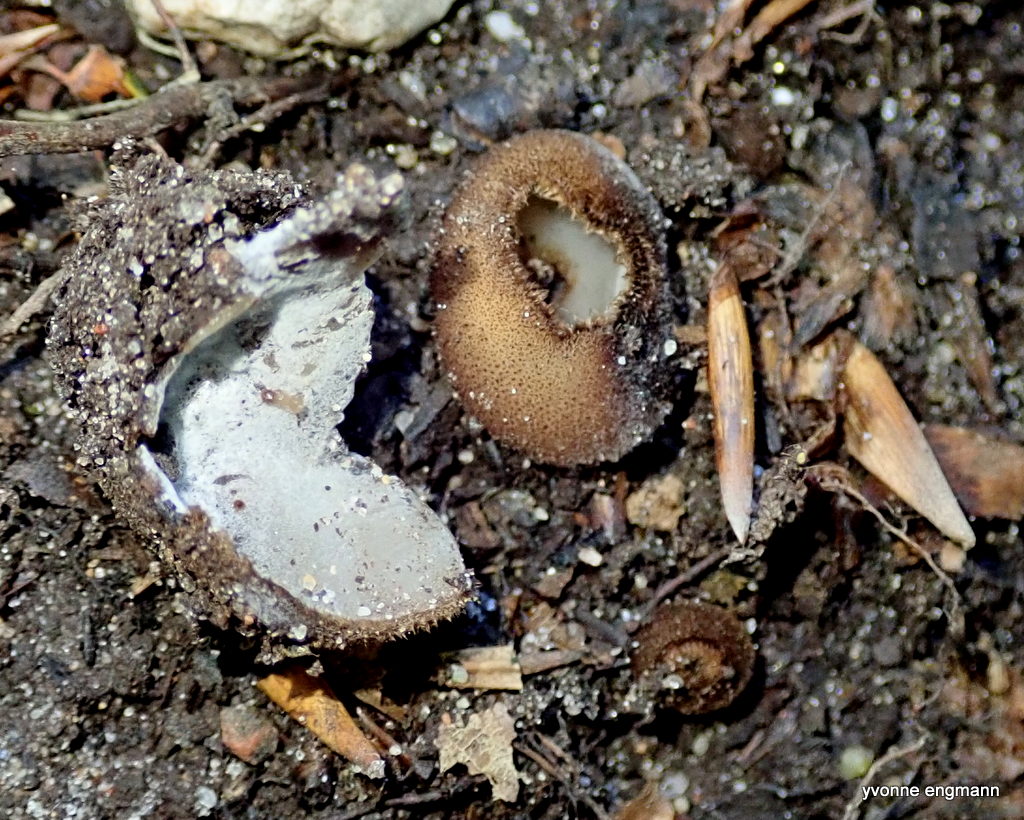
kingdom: Fungi
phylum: Ascomycota
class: Pezizomycetes
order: Pezizales
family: Pyronemataceae
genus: Humaria
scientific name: Humaria hemisphaerica
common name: halvkugleformet børstebæger
